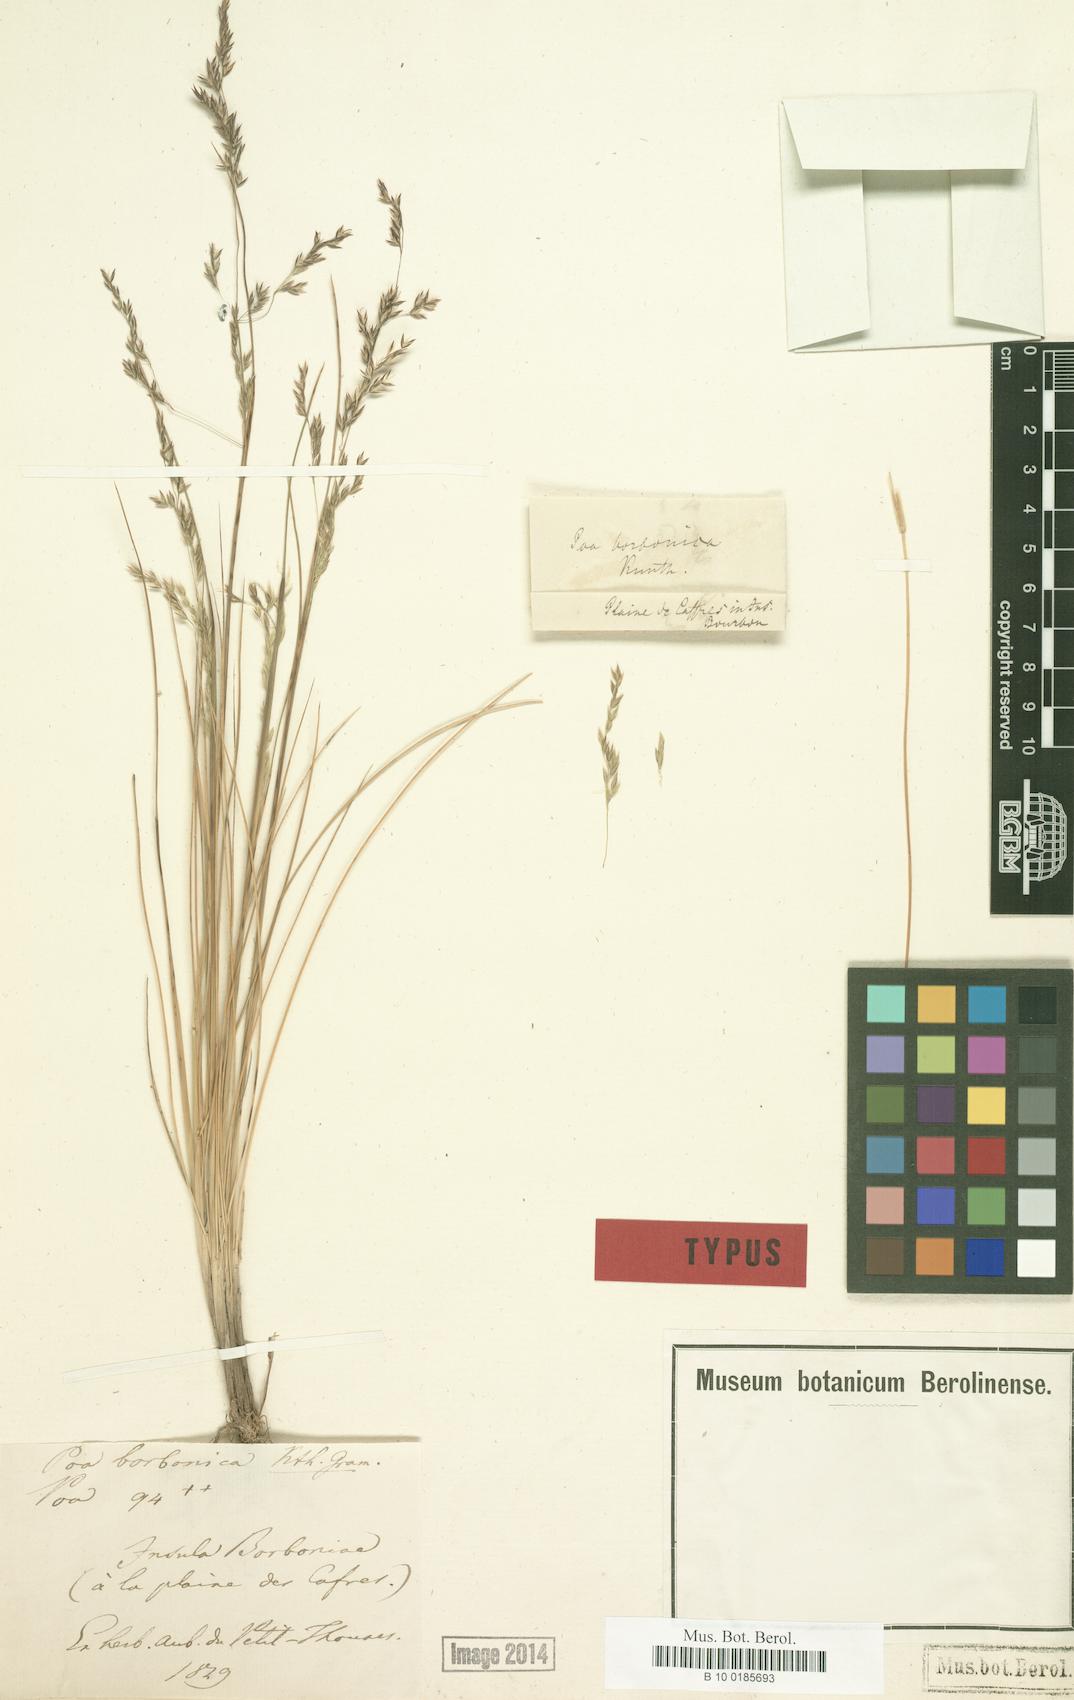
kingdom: Plantae
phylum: Tracheophyta
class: Liliopsida
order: Poales
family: Poaceae
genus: Poa
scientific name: Poa borbonica
